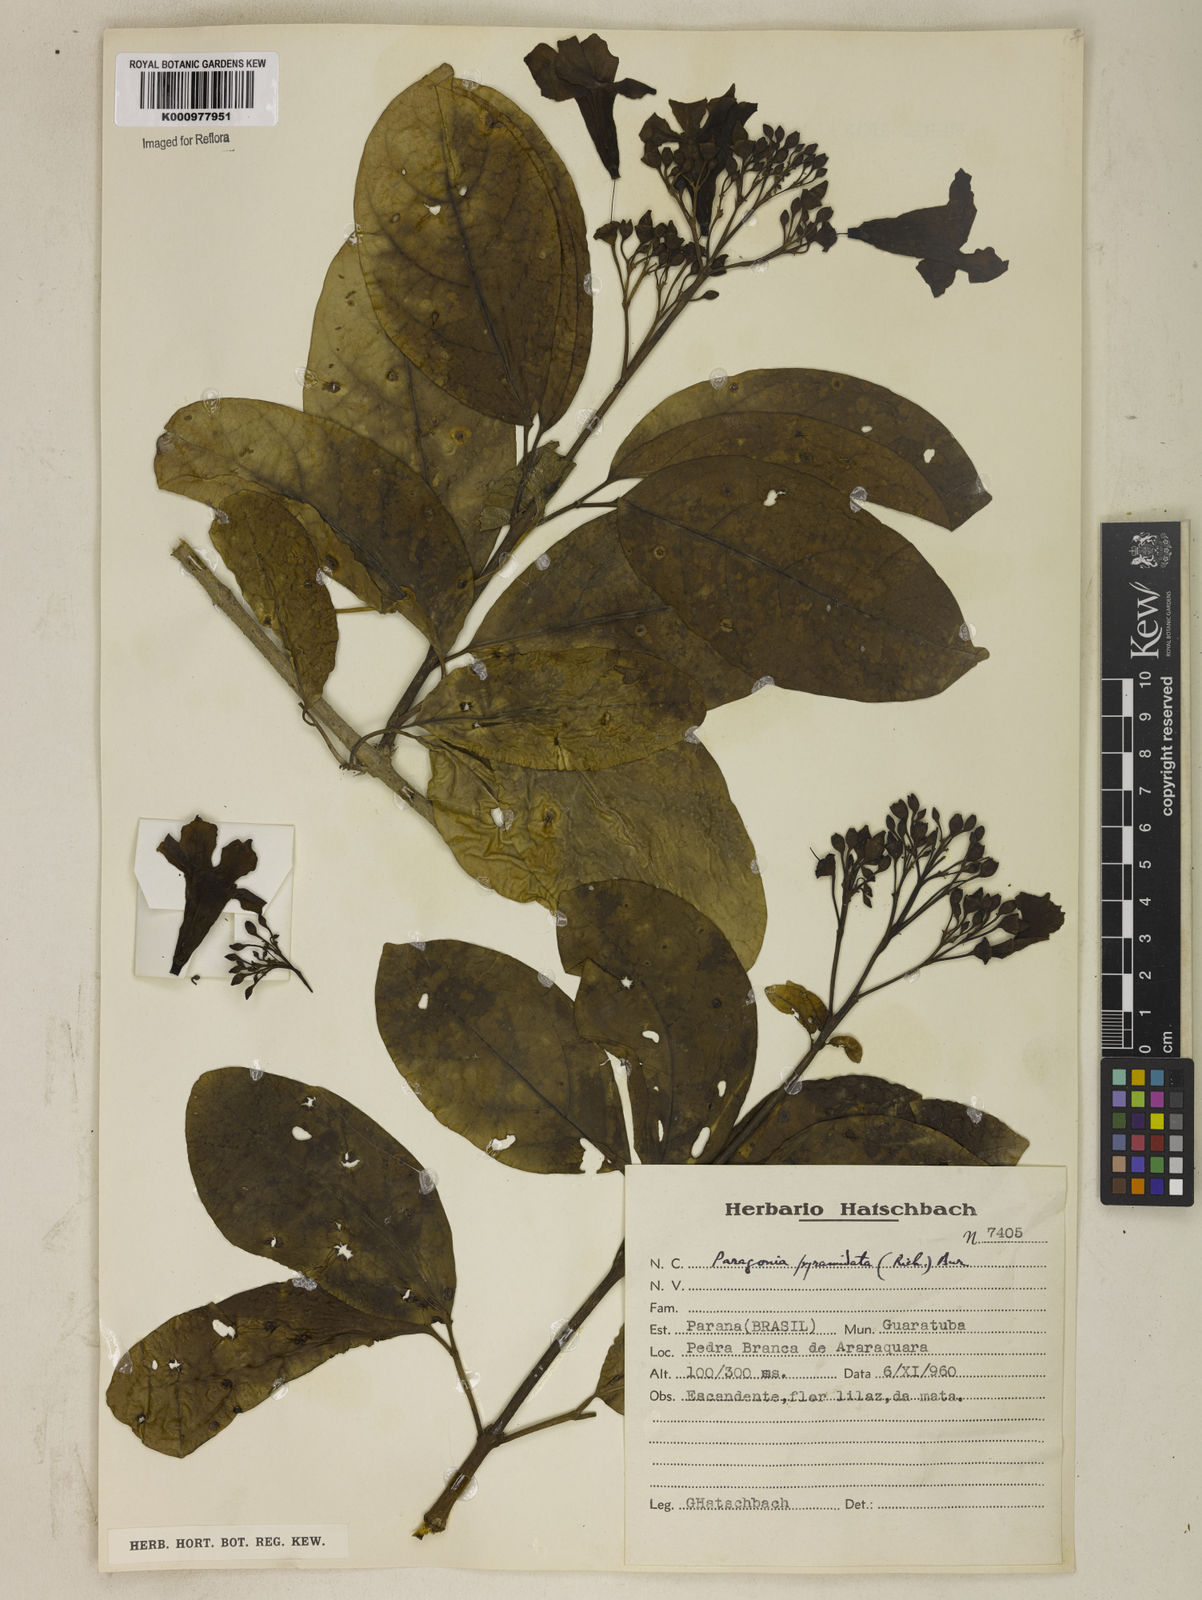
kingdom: Plantae
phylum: Tracheophyta
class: Magnoliopsida
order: Lamiales
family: Bignoniaceae
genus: Tanaecium
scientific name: Tanaecium pyramidatum
